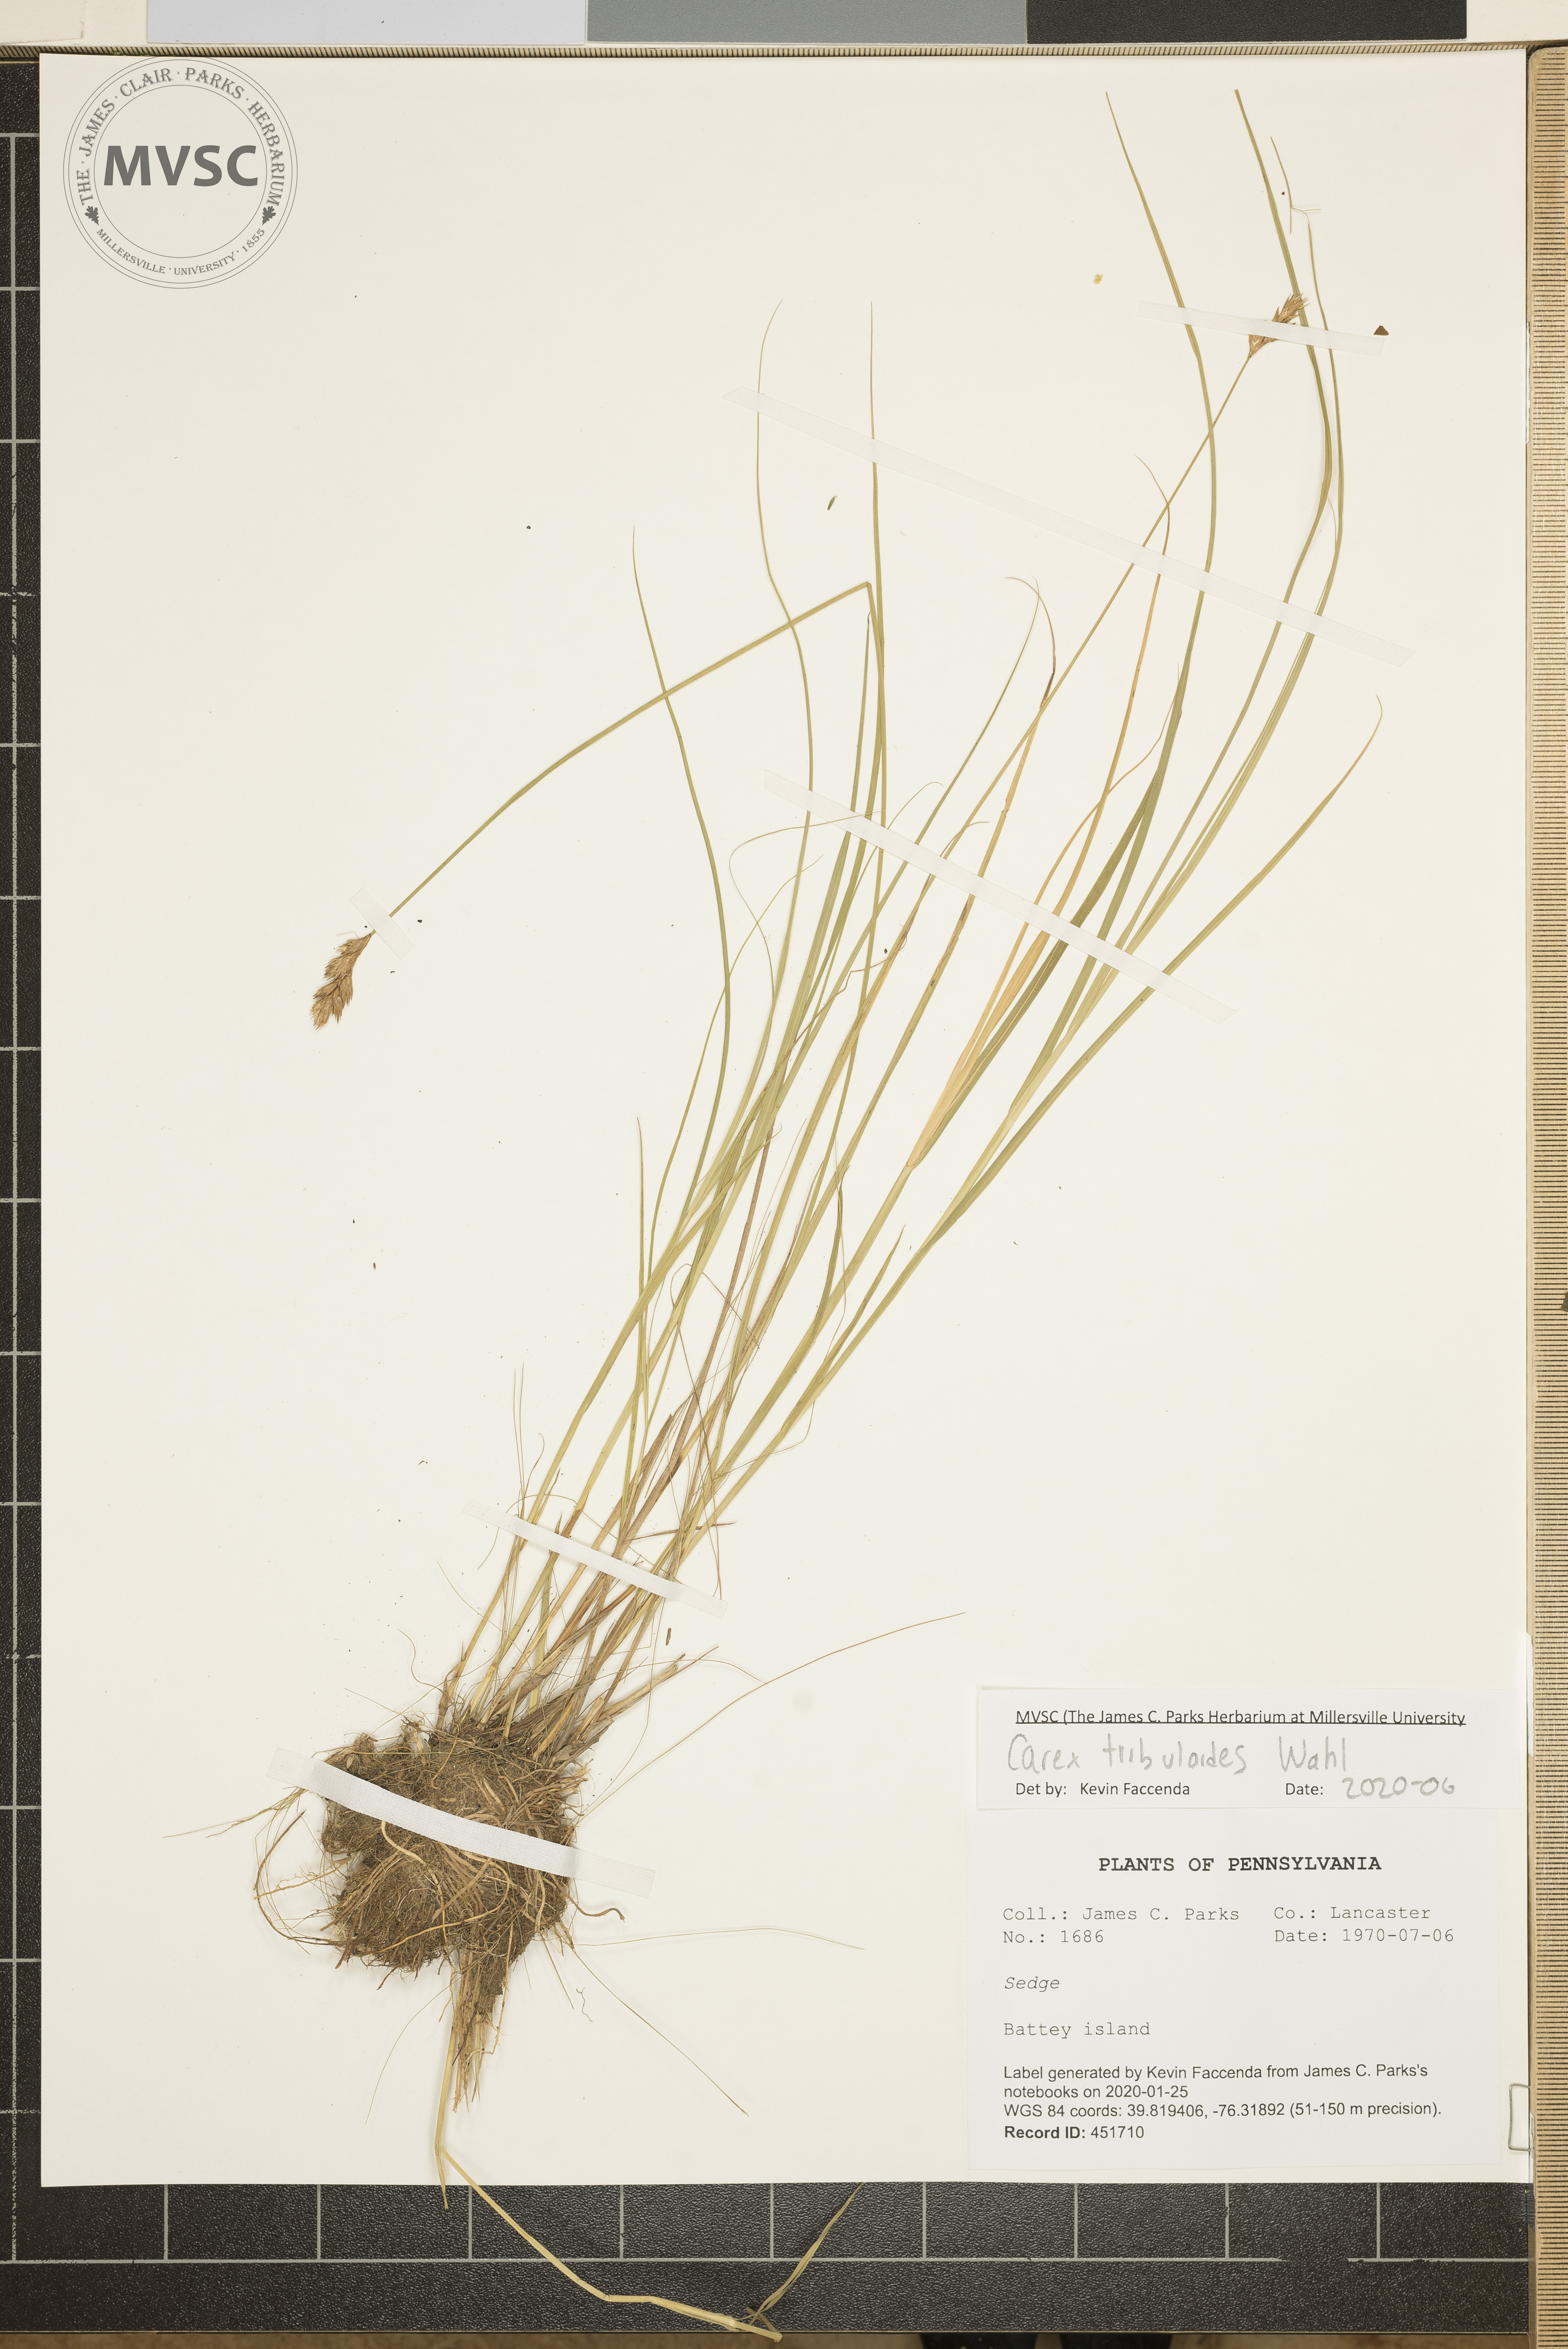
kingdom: Plantae
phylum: Tracheophyta
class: Liliopsida
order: Poales
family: Cyperaceae
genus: Carex
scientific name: Carex tribuloides
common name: Blunt broom sedge
